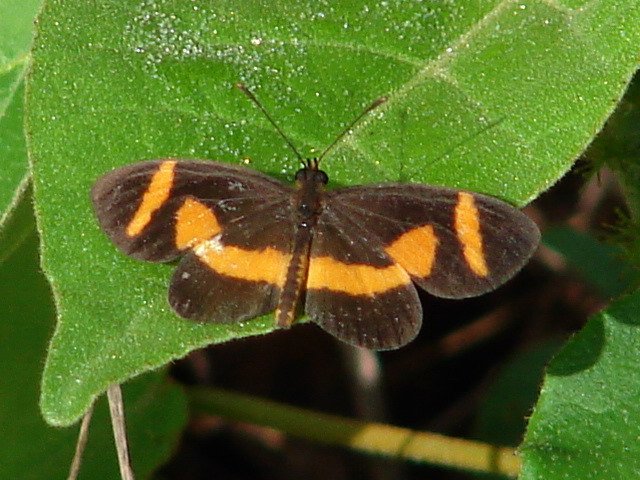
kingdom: Animalia
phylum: Arthropoda
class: Insecta
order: Lepidoptera
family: Nymphalidae
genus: Microtia
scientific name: Microtia elva
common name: Elf
